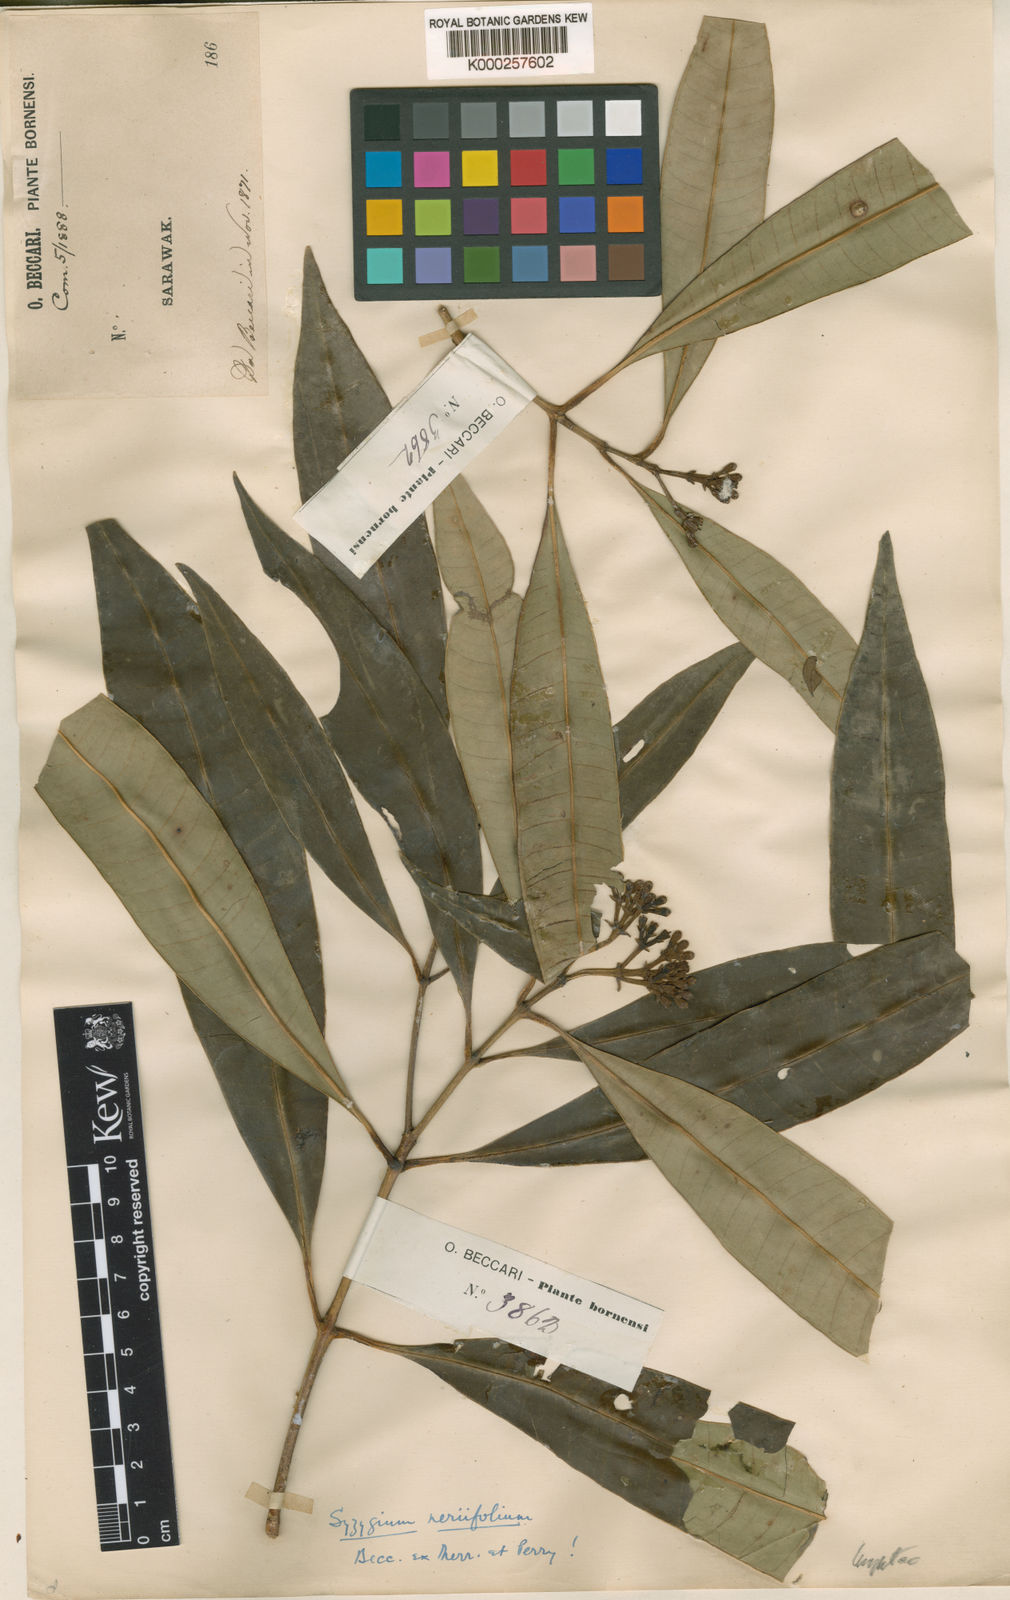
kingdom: Plantae
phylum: Tracheophyta
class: Magnoliopsida
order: Myrtales
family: Myrtaceae
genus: Syzygium
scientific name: Syzygium neriifolium
